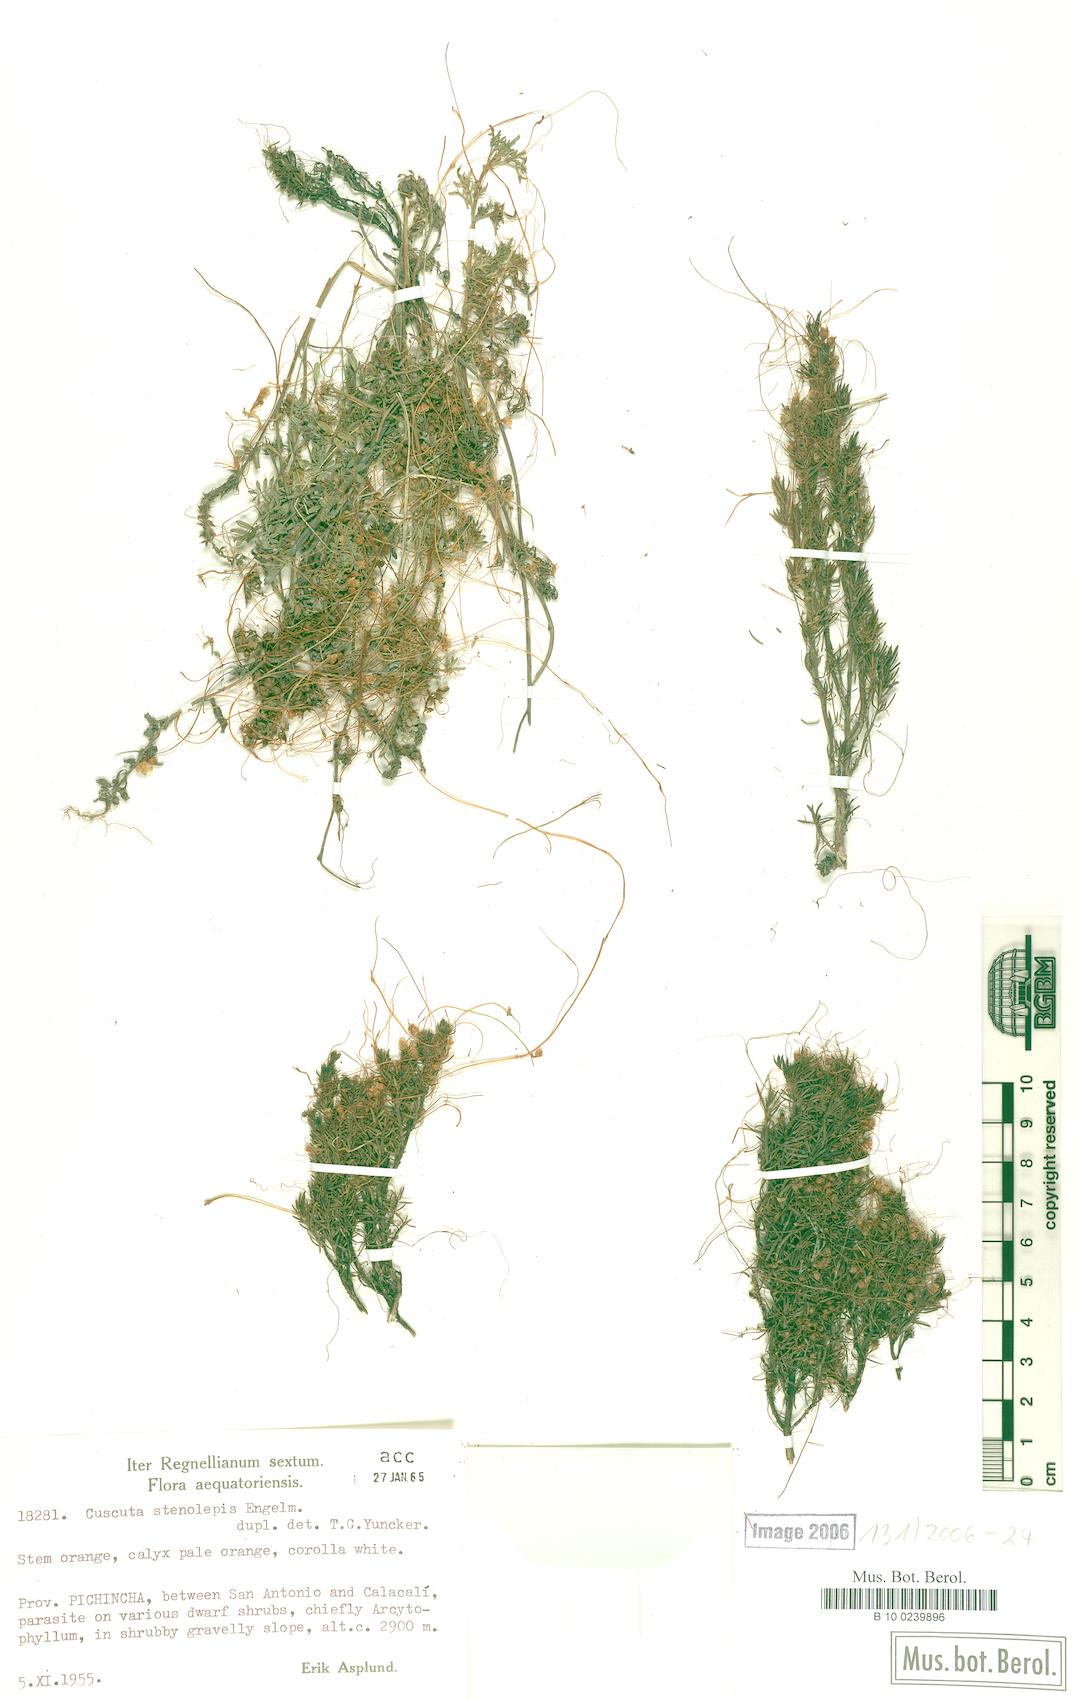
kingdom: Plantae
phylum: Tracheophyta
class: Magnoliopsida
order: Solanales
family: Convolvulaceae
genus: Cuscuta
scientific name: Cuscuta stenolepis
